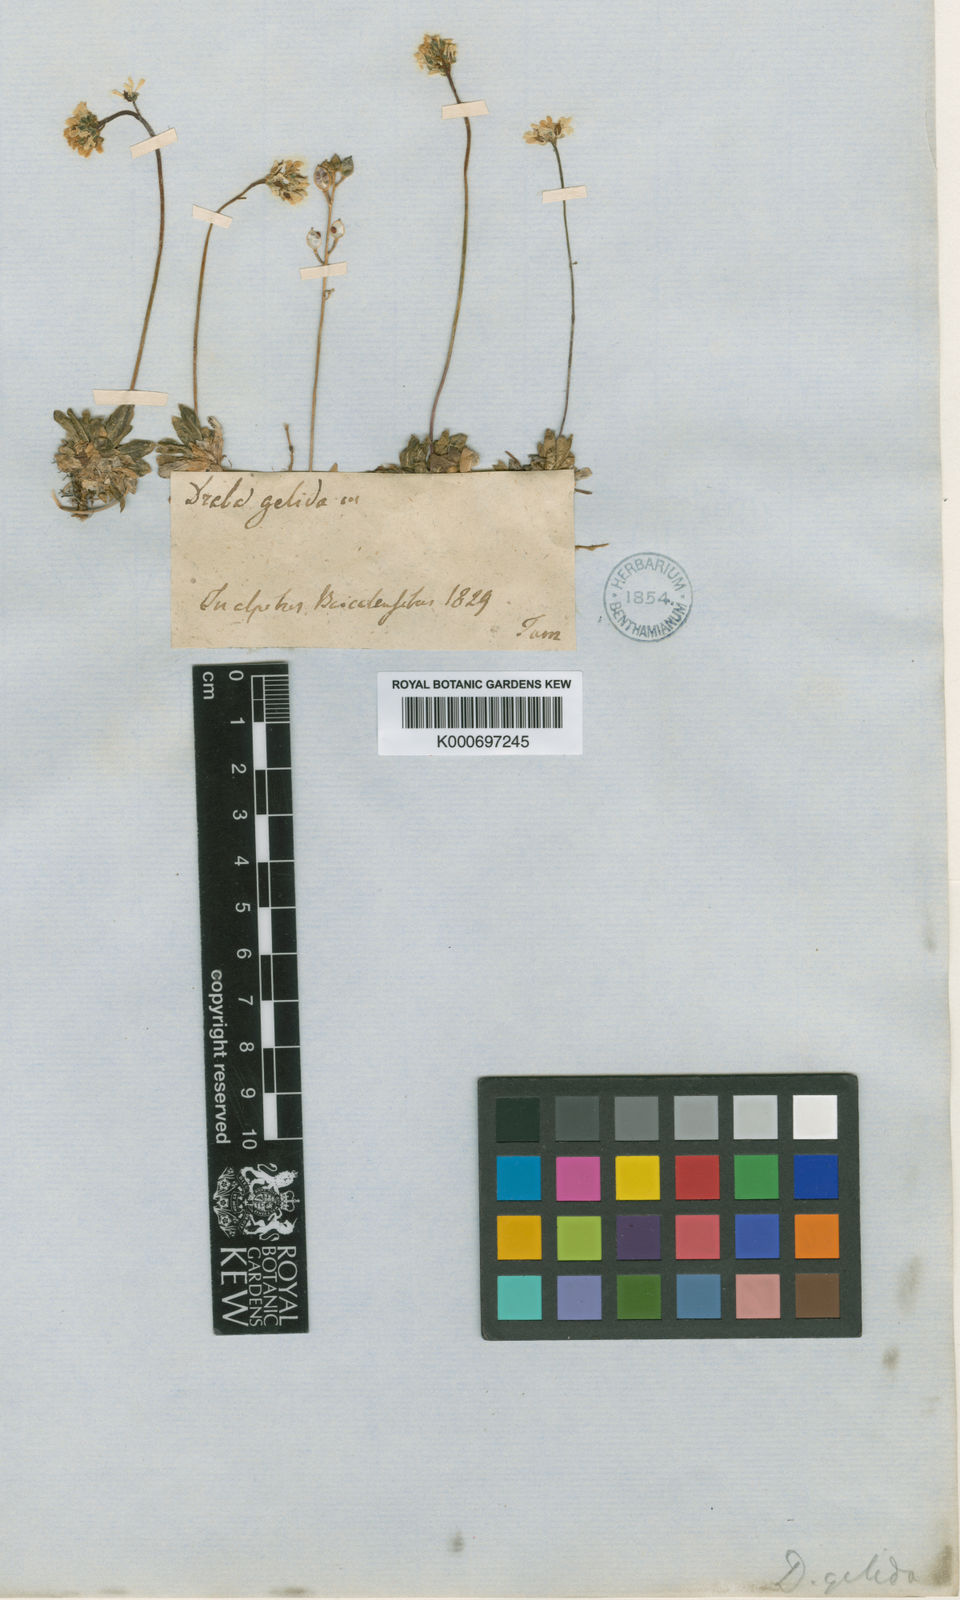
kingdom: Plantae
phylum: Tracheophyta
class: Magnoliopsida
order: Brassicales
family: Brassicaceae
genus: Draba
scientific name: Draba ochroleuca
